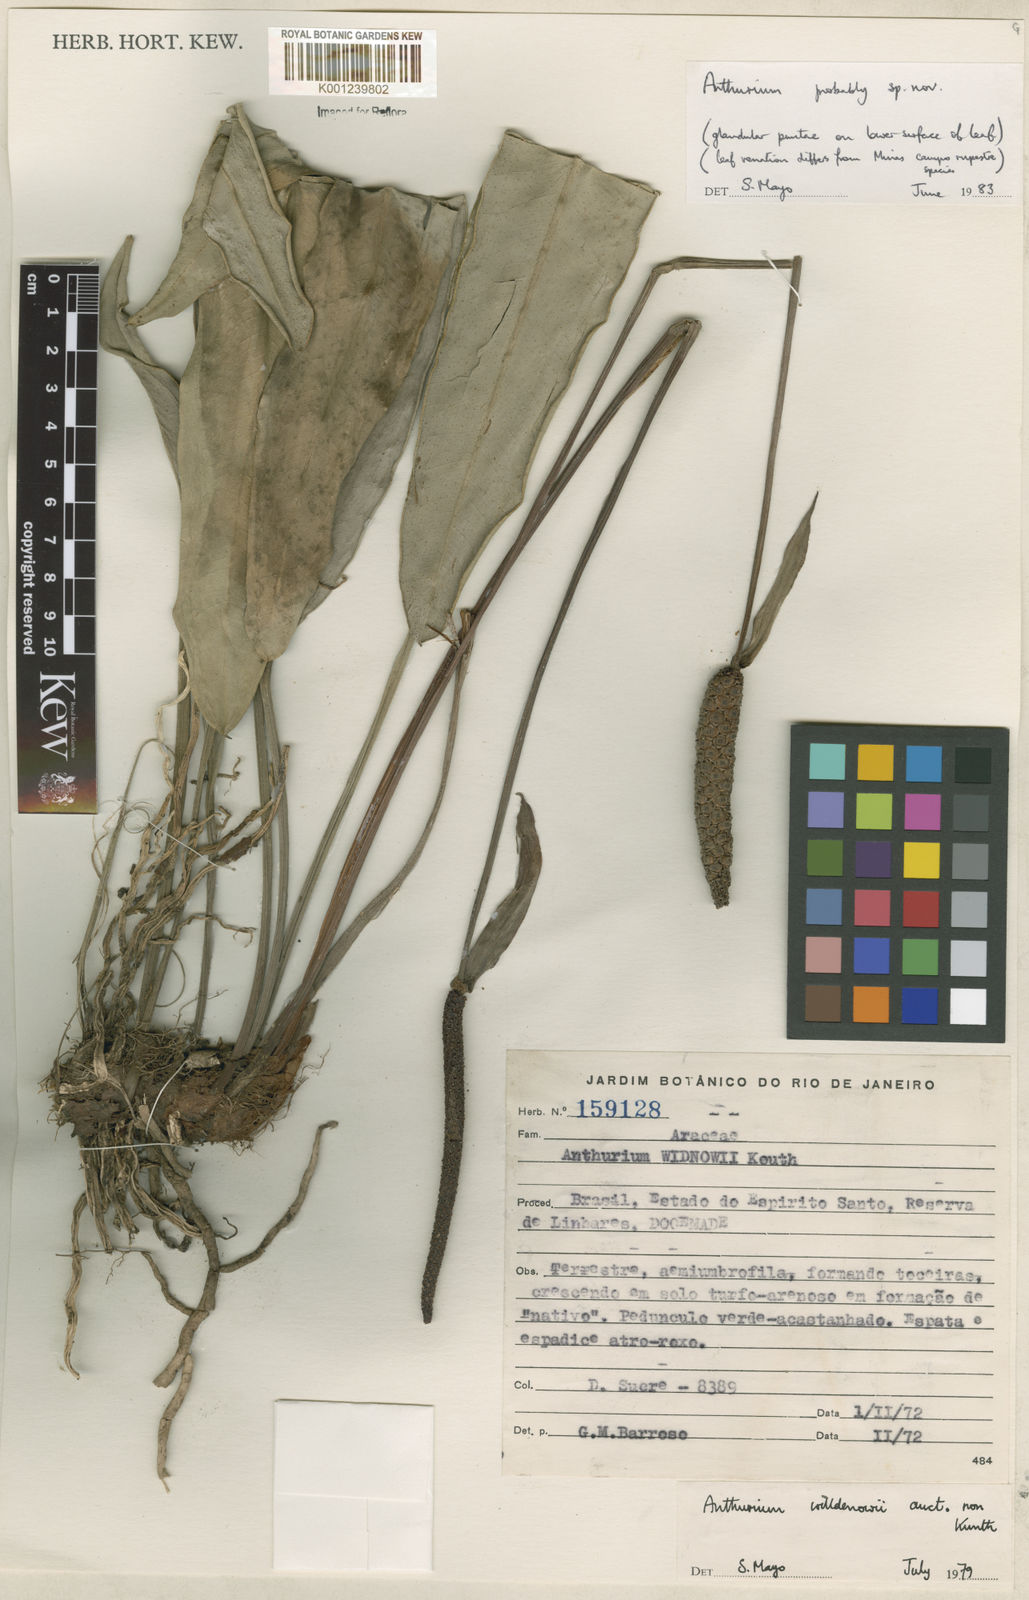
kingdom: Plantae
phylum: Tracheophyta
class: Liliopsida
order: Alismatales
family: Araceae
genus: Anthurium
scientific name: Anthurium
